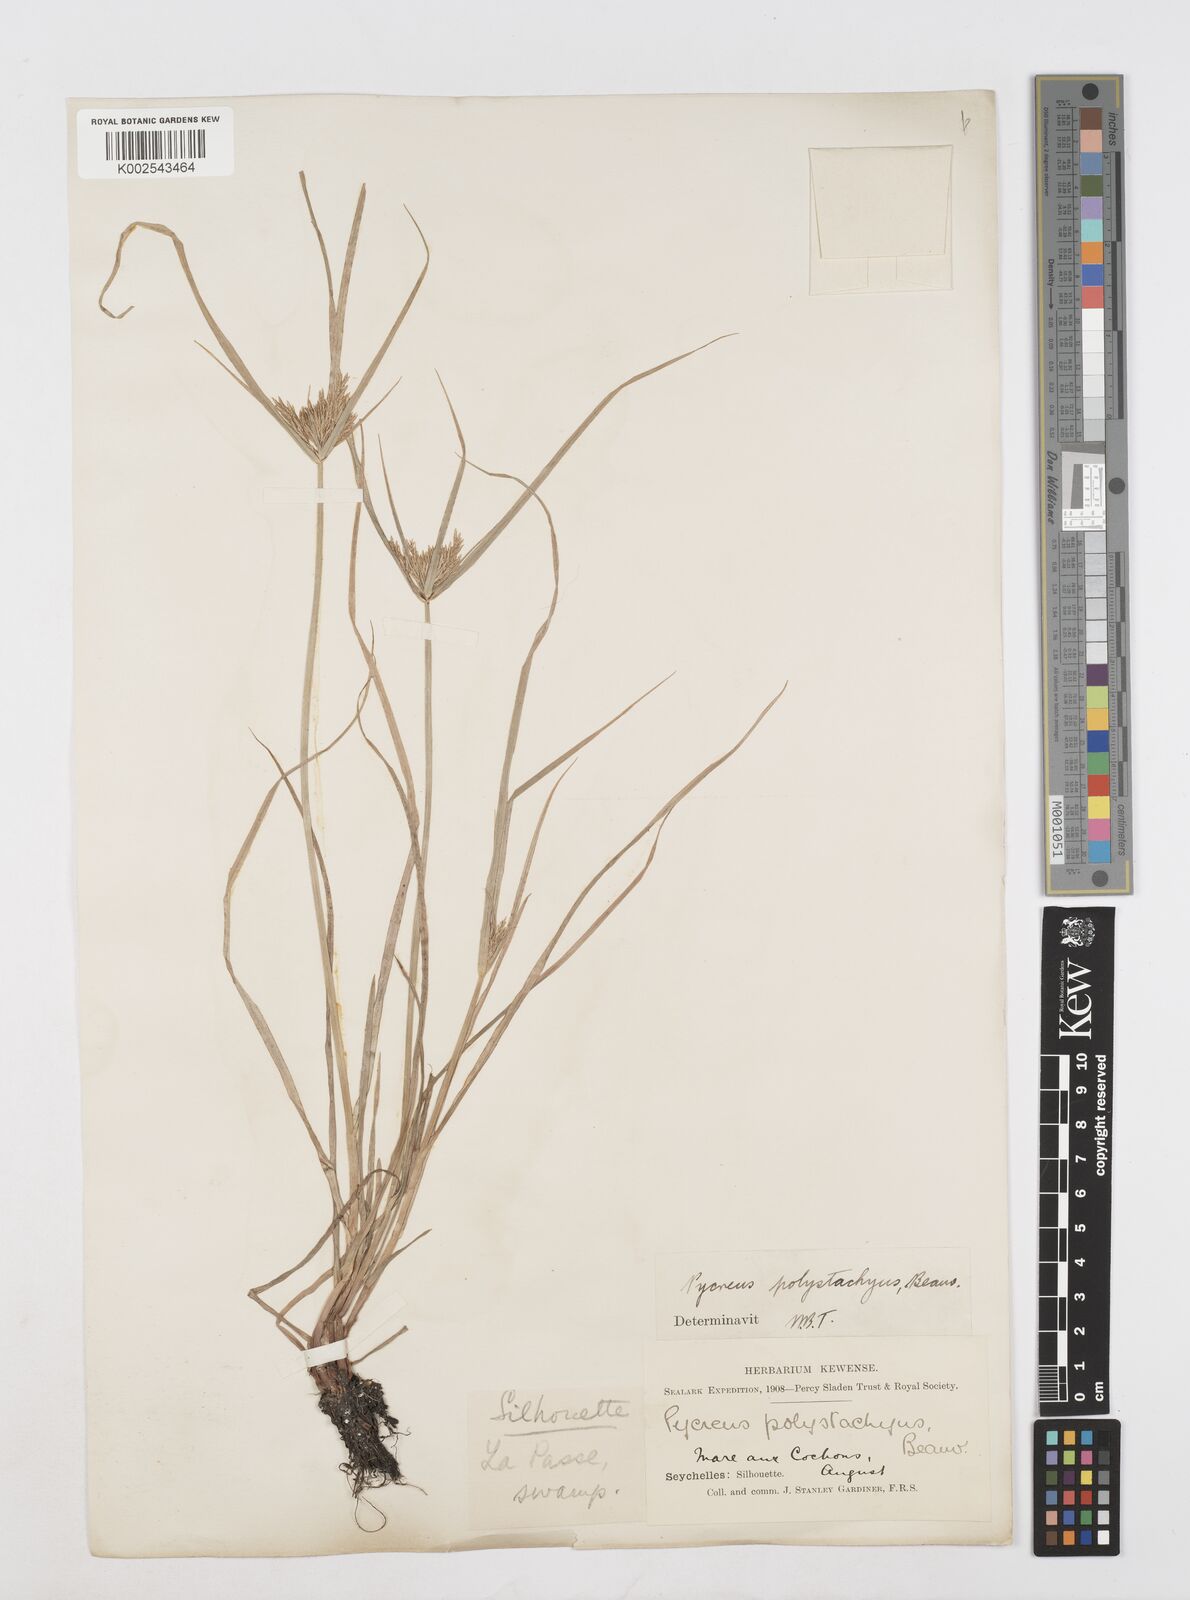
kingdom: Plantae
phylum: Tracheophyta
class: Liliopsida
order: Poales
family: Cyperaceae
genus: Cyperus
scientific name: Cyperus polystachyos
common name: Bunchy flat sedge
